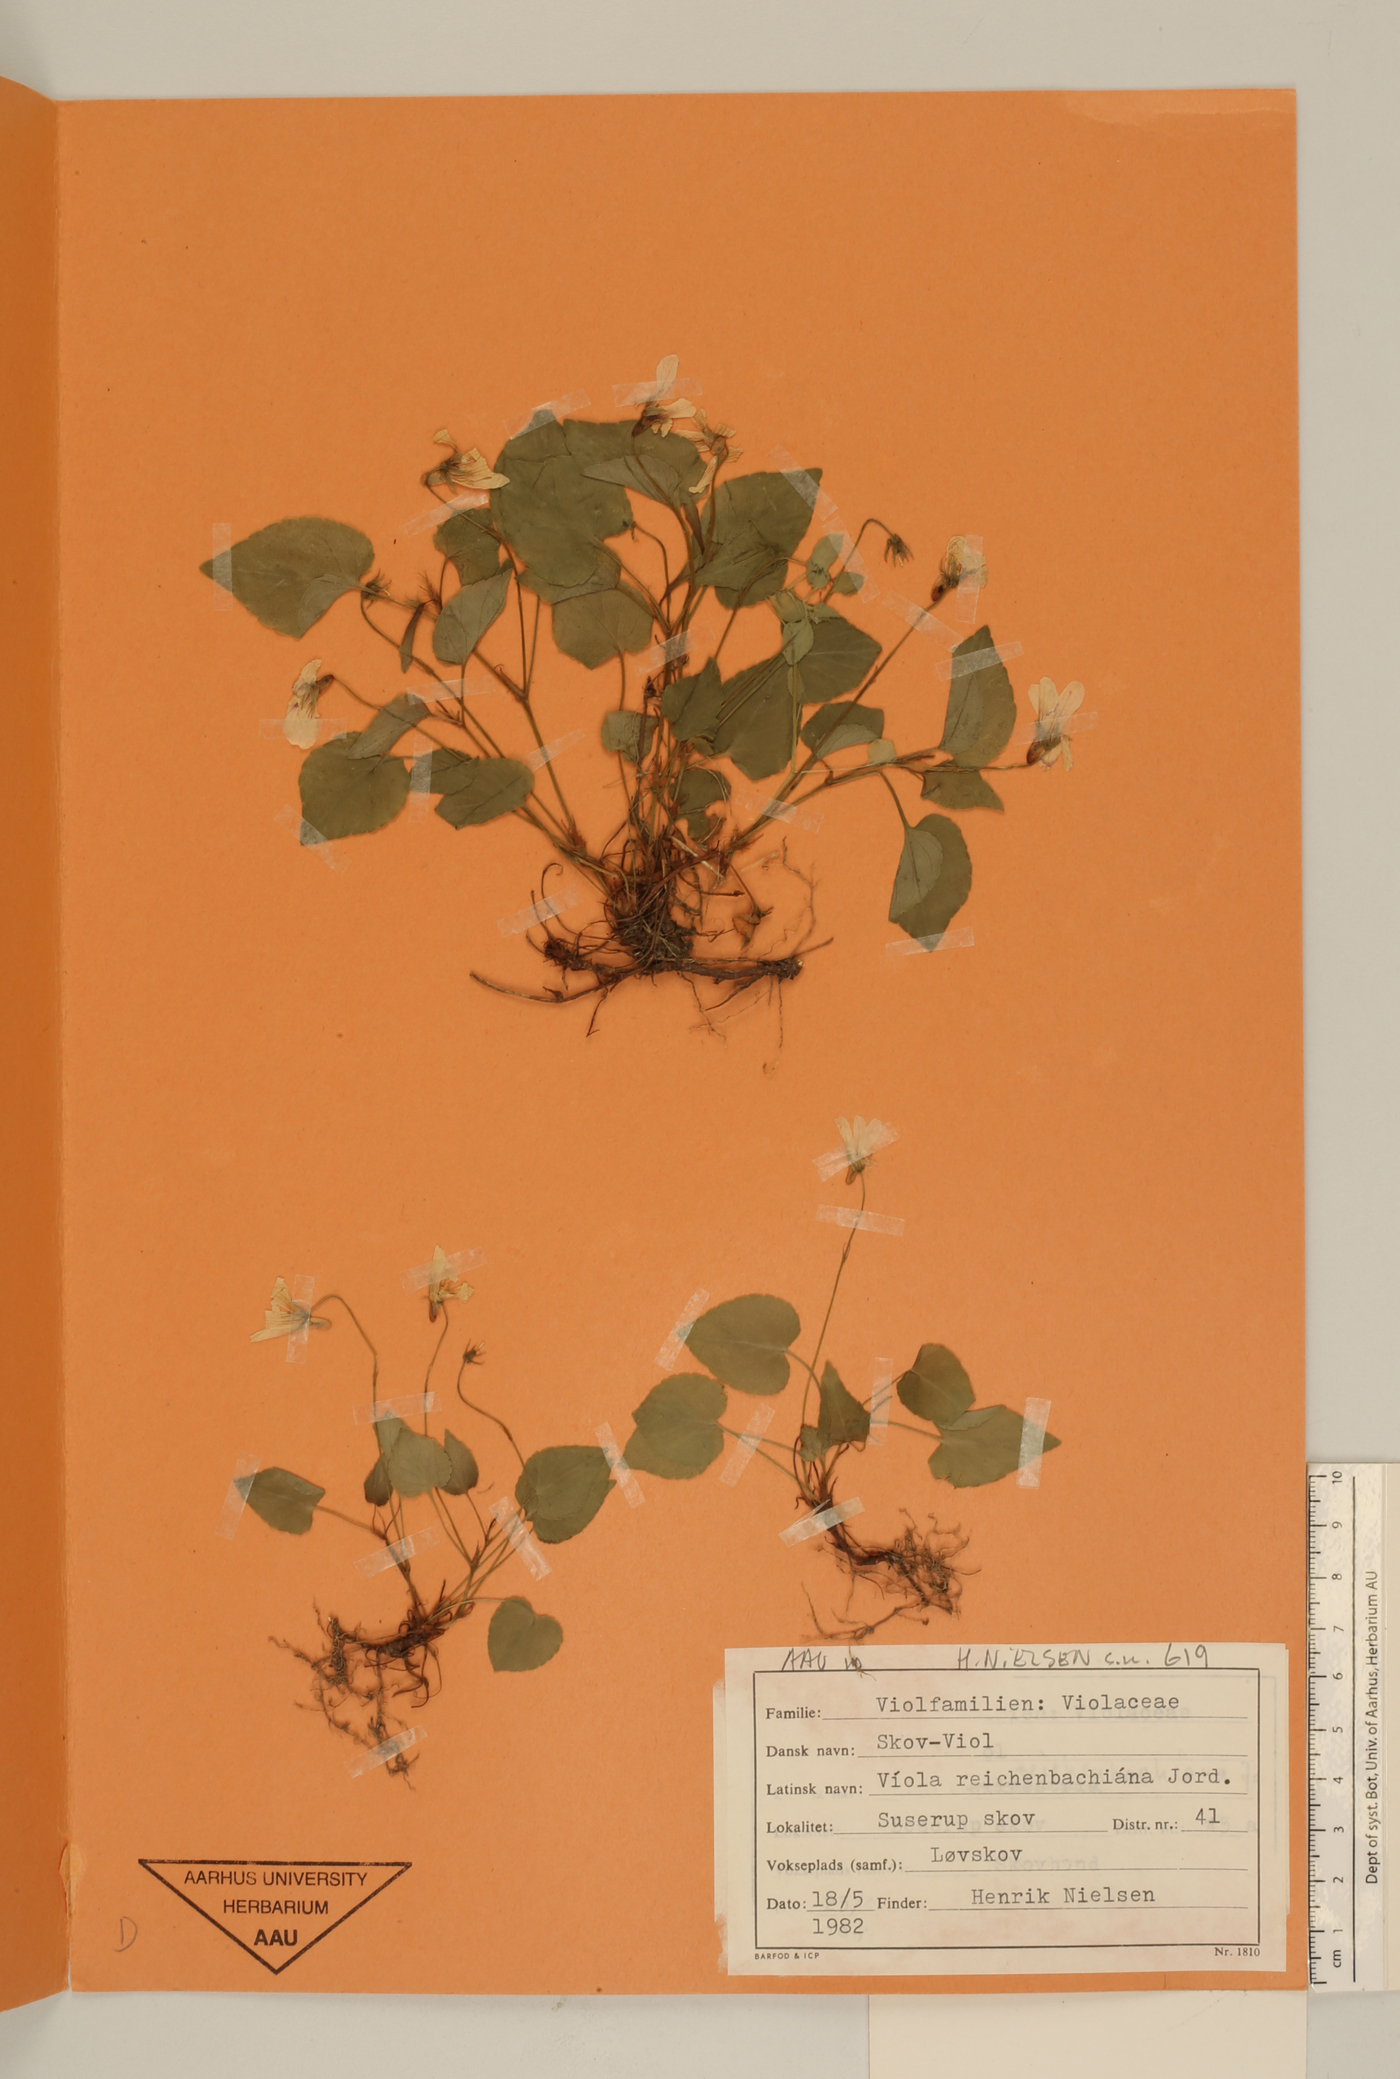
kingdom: Plantae
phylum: Tracheophyta
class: Magnoliopsida
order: Malpighiales
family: Violaceae
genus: Viola
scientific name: Viola reichenbachiana
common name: Early dog-violet
